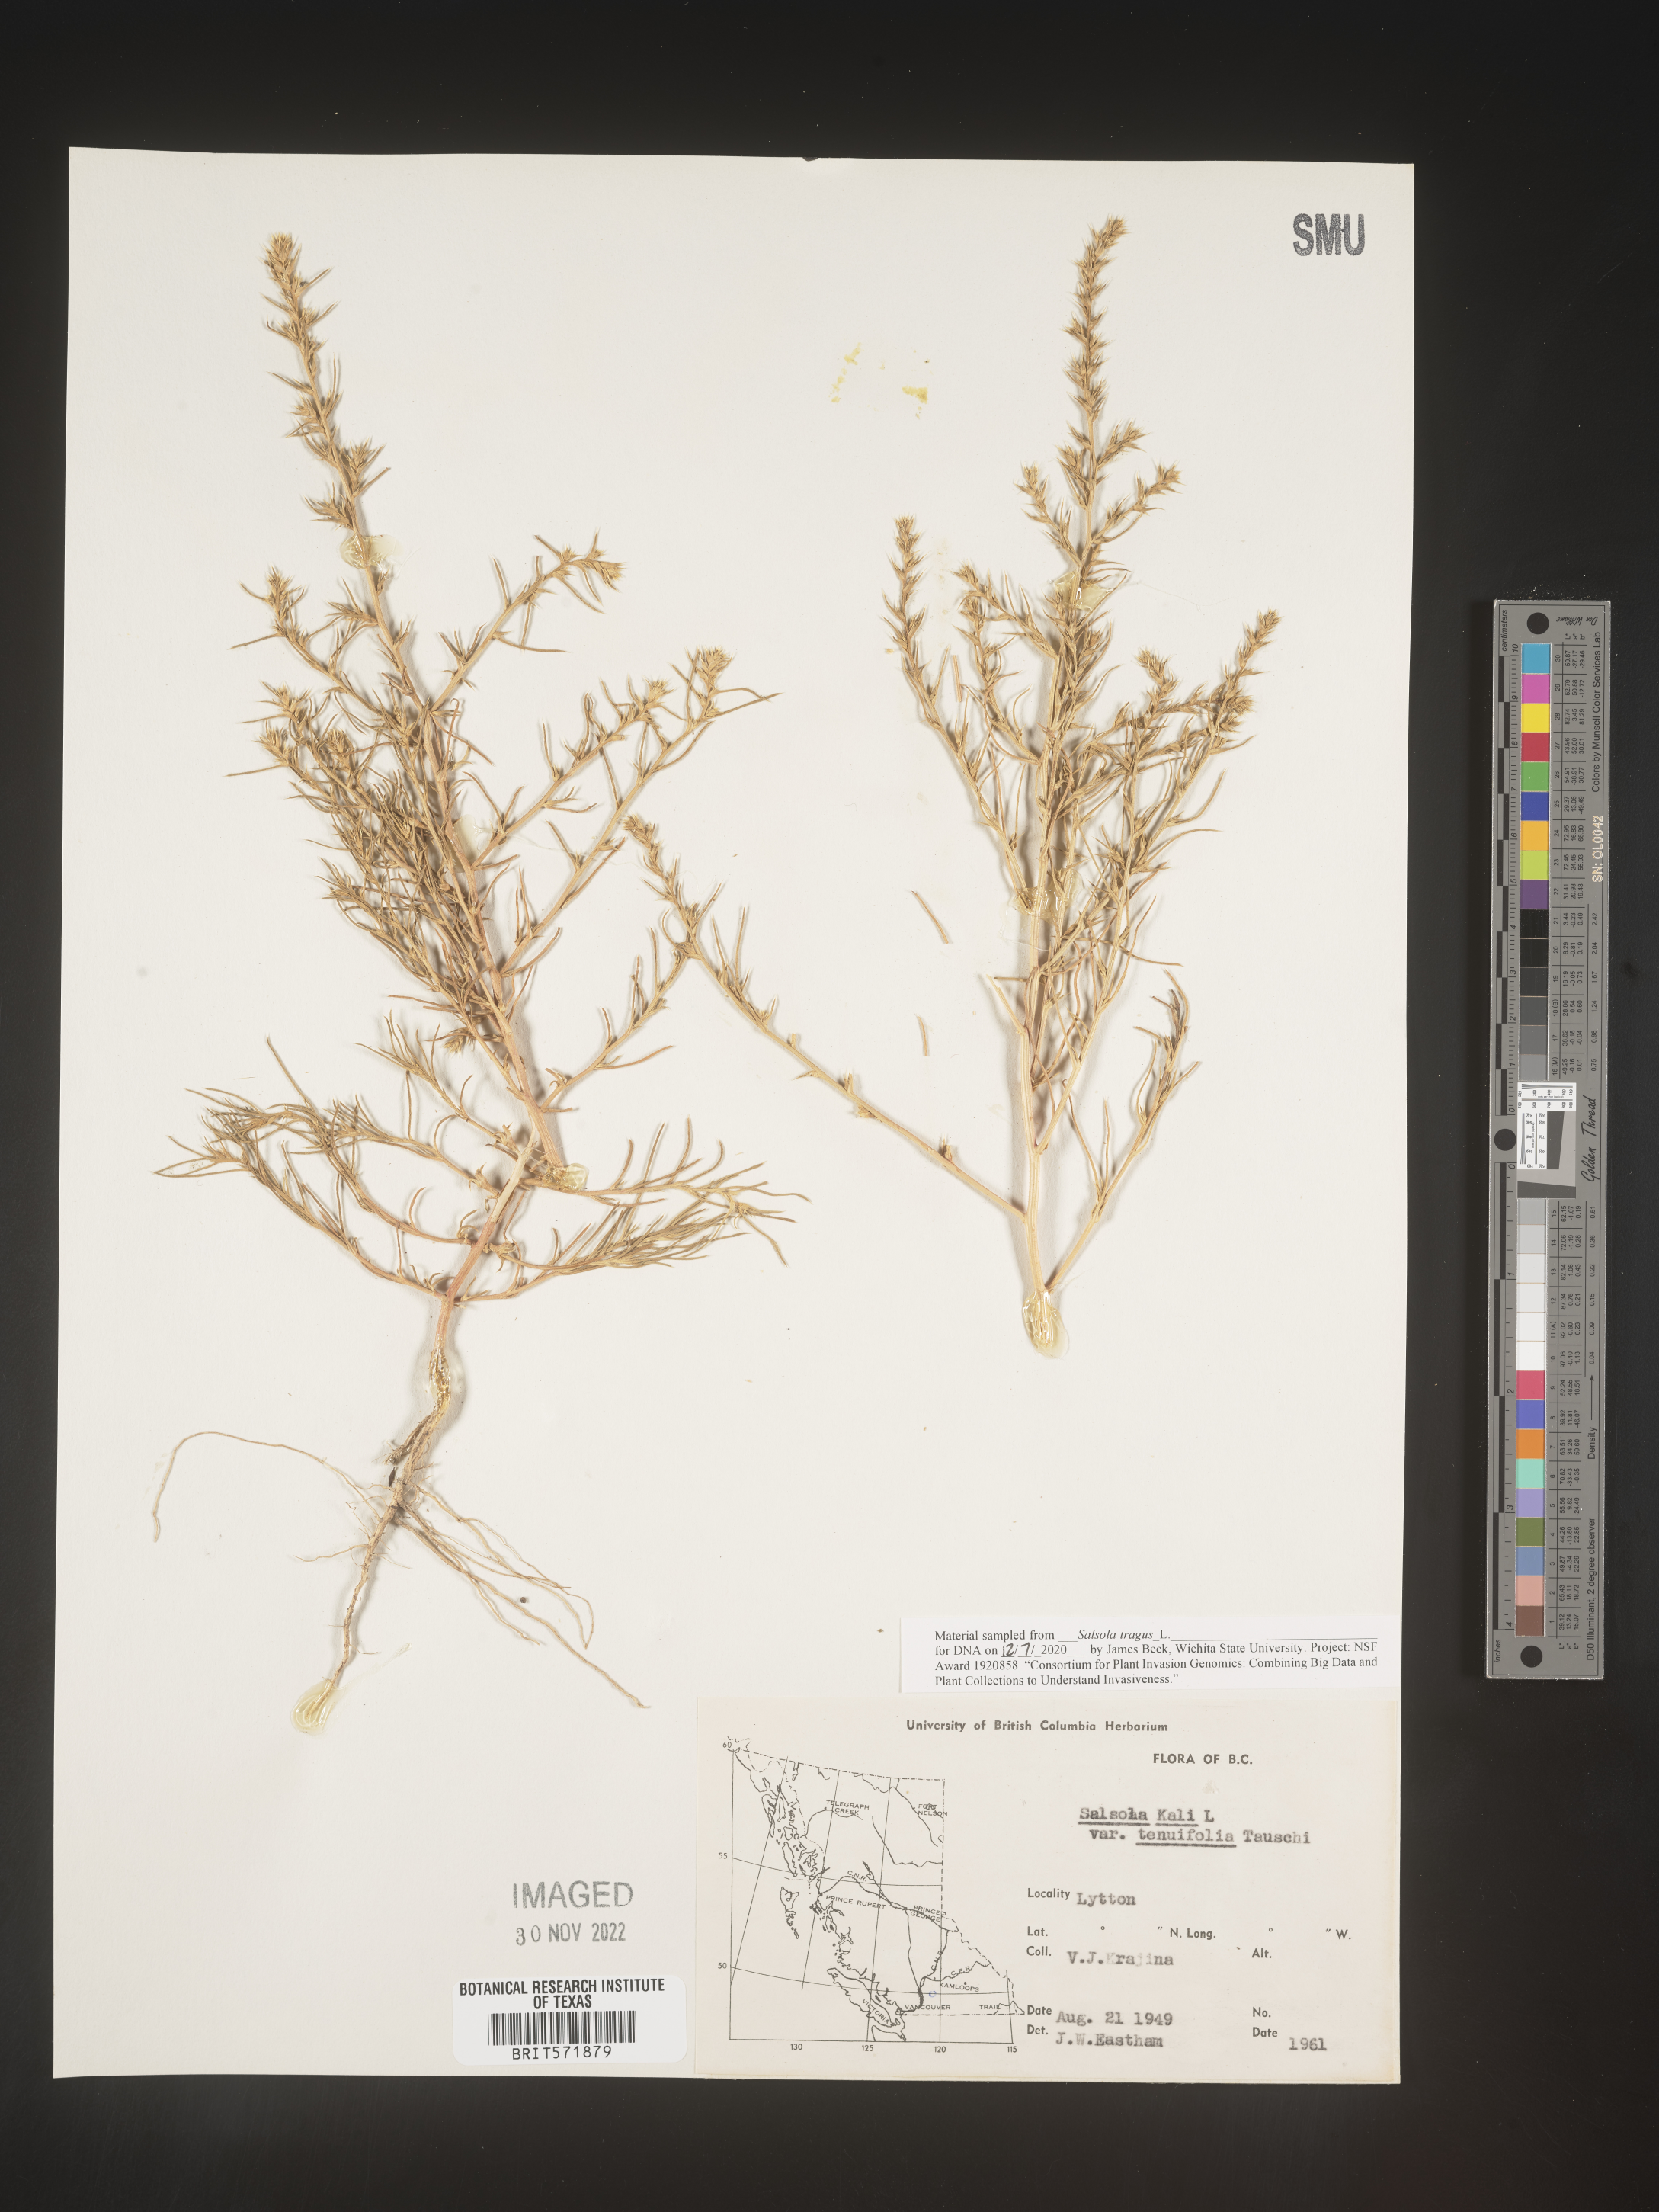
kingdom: Plantae
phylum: Tracheophyta
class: Magnoliopsida
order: Caryophyllales
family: Amaranthaceae
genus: Salsola
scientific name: Salsola tragus
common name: Prickly russian thistle
